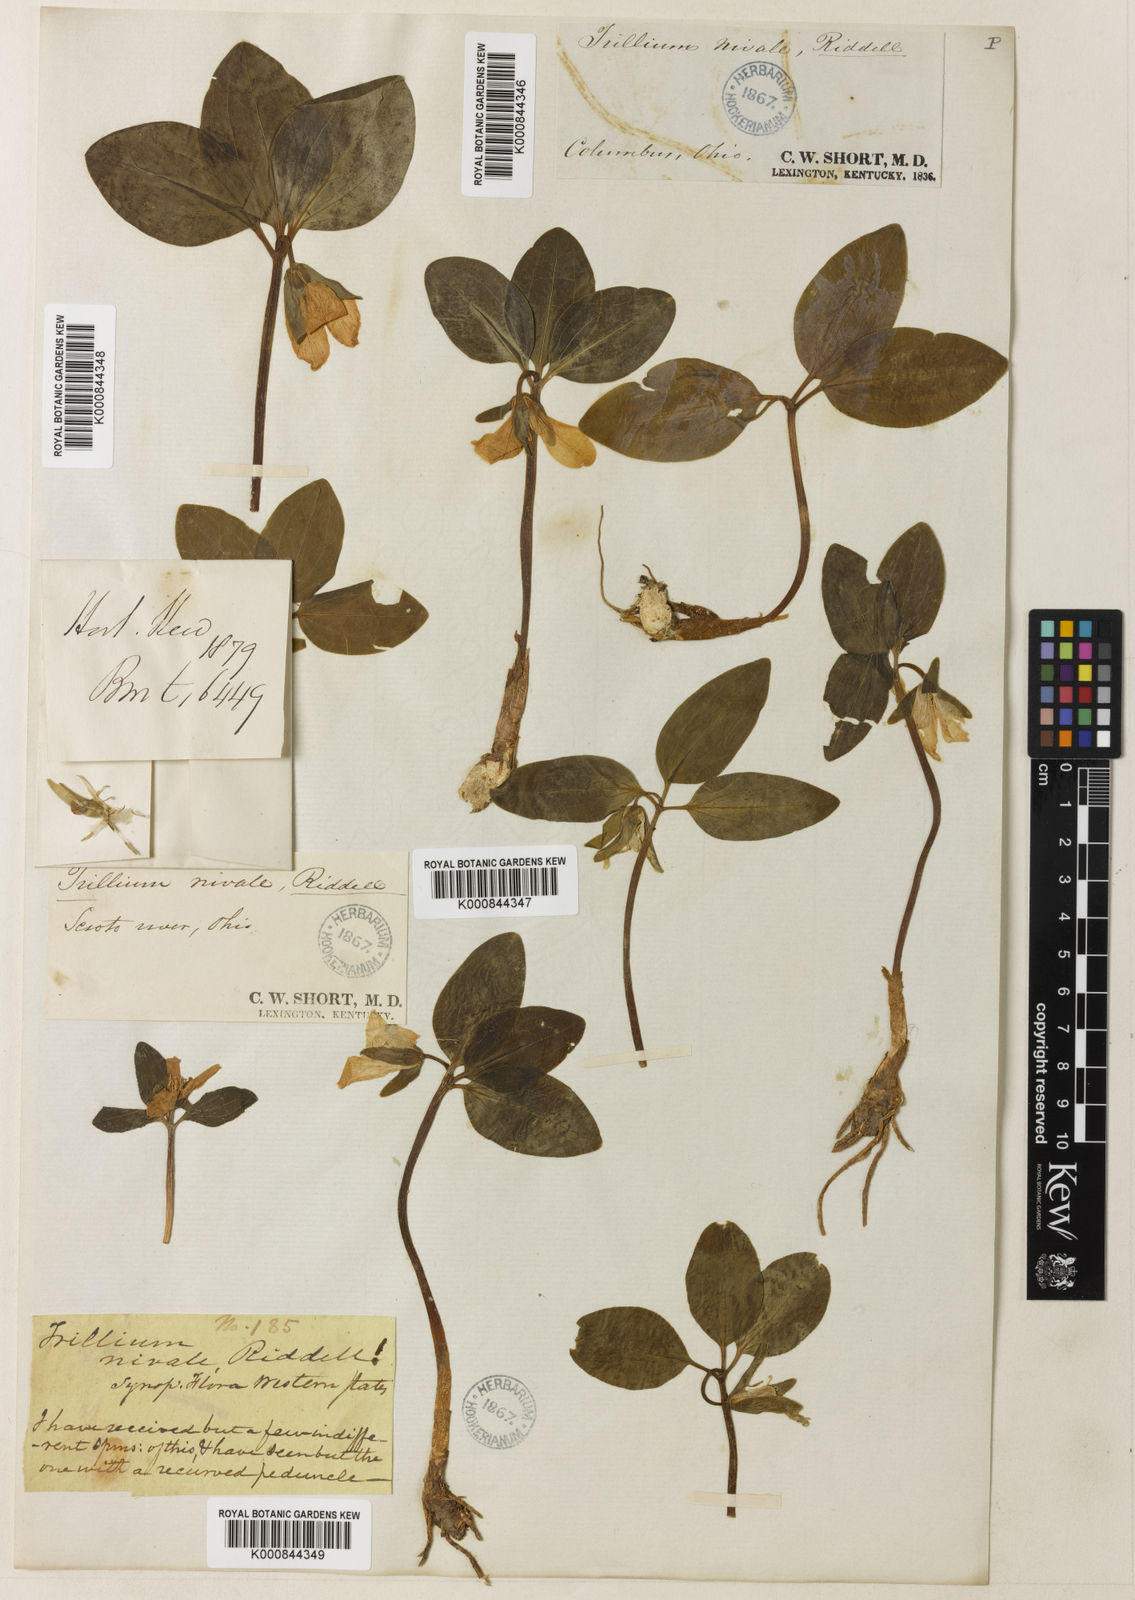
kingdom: Plantae
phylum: Tracheophyta
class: Liliopsida
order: Liliales
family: Melanthiaceae
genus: Trillium
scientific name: Trillium nivale
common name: Dwarf white trillium
